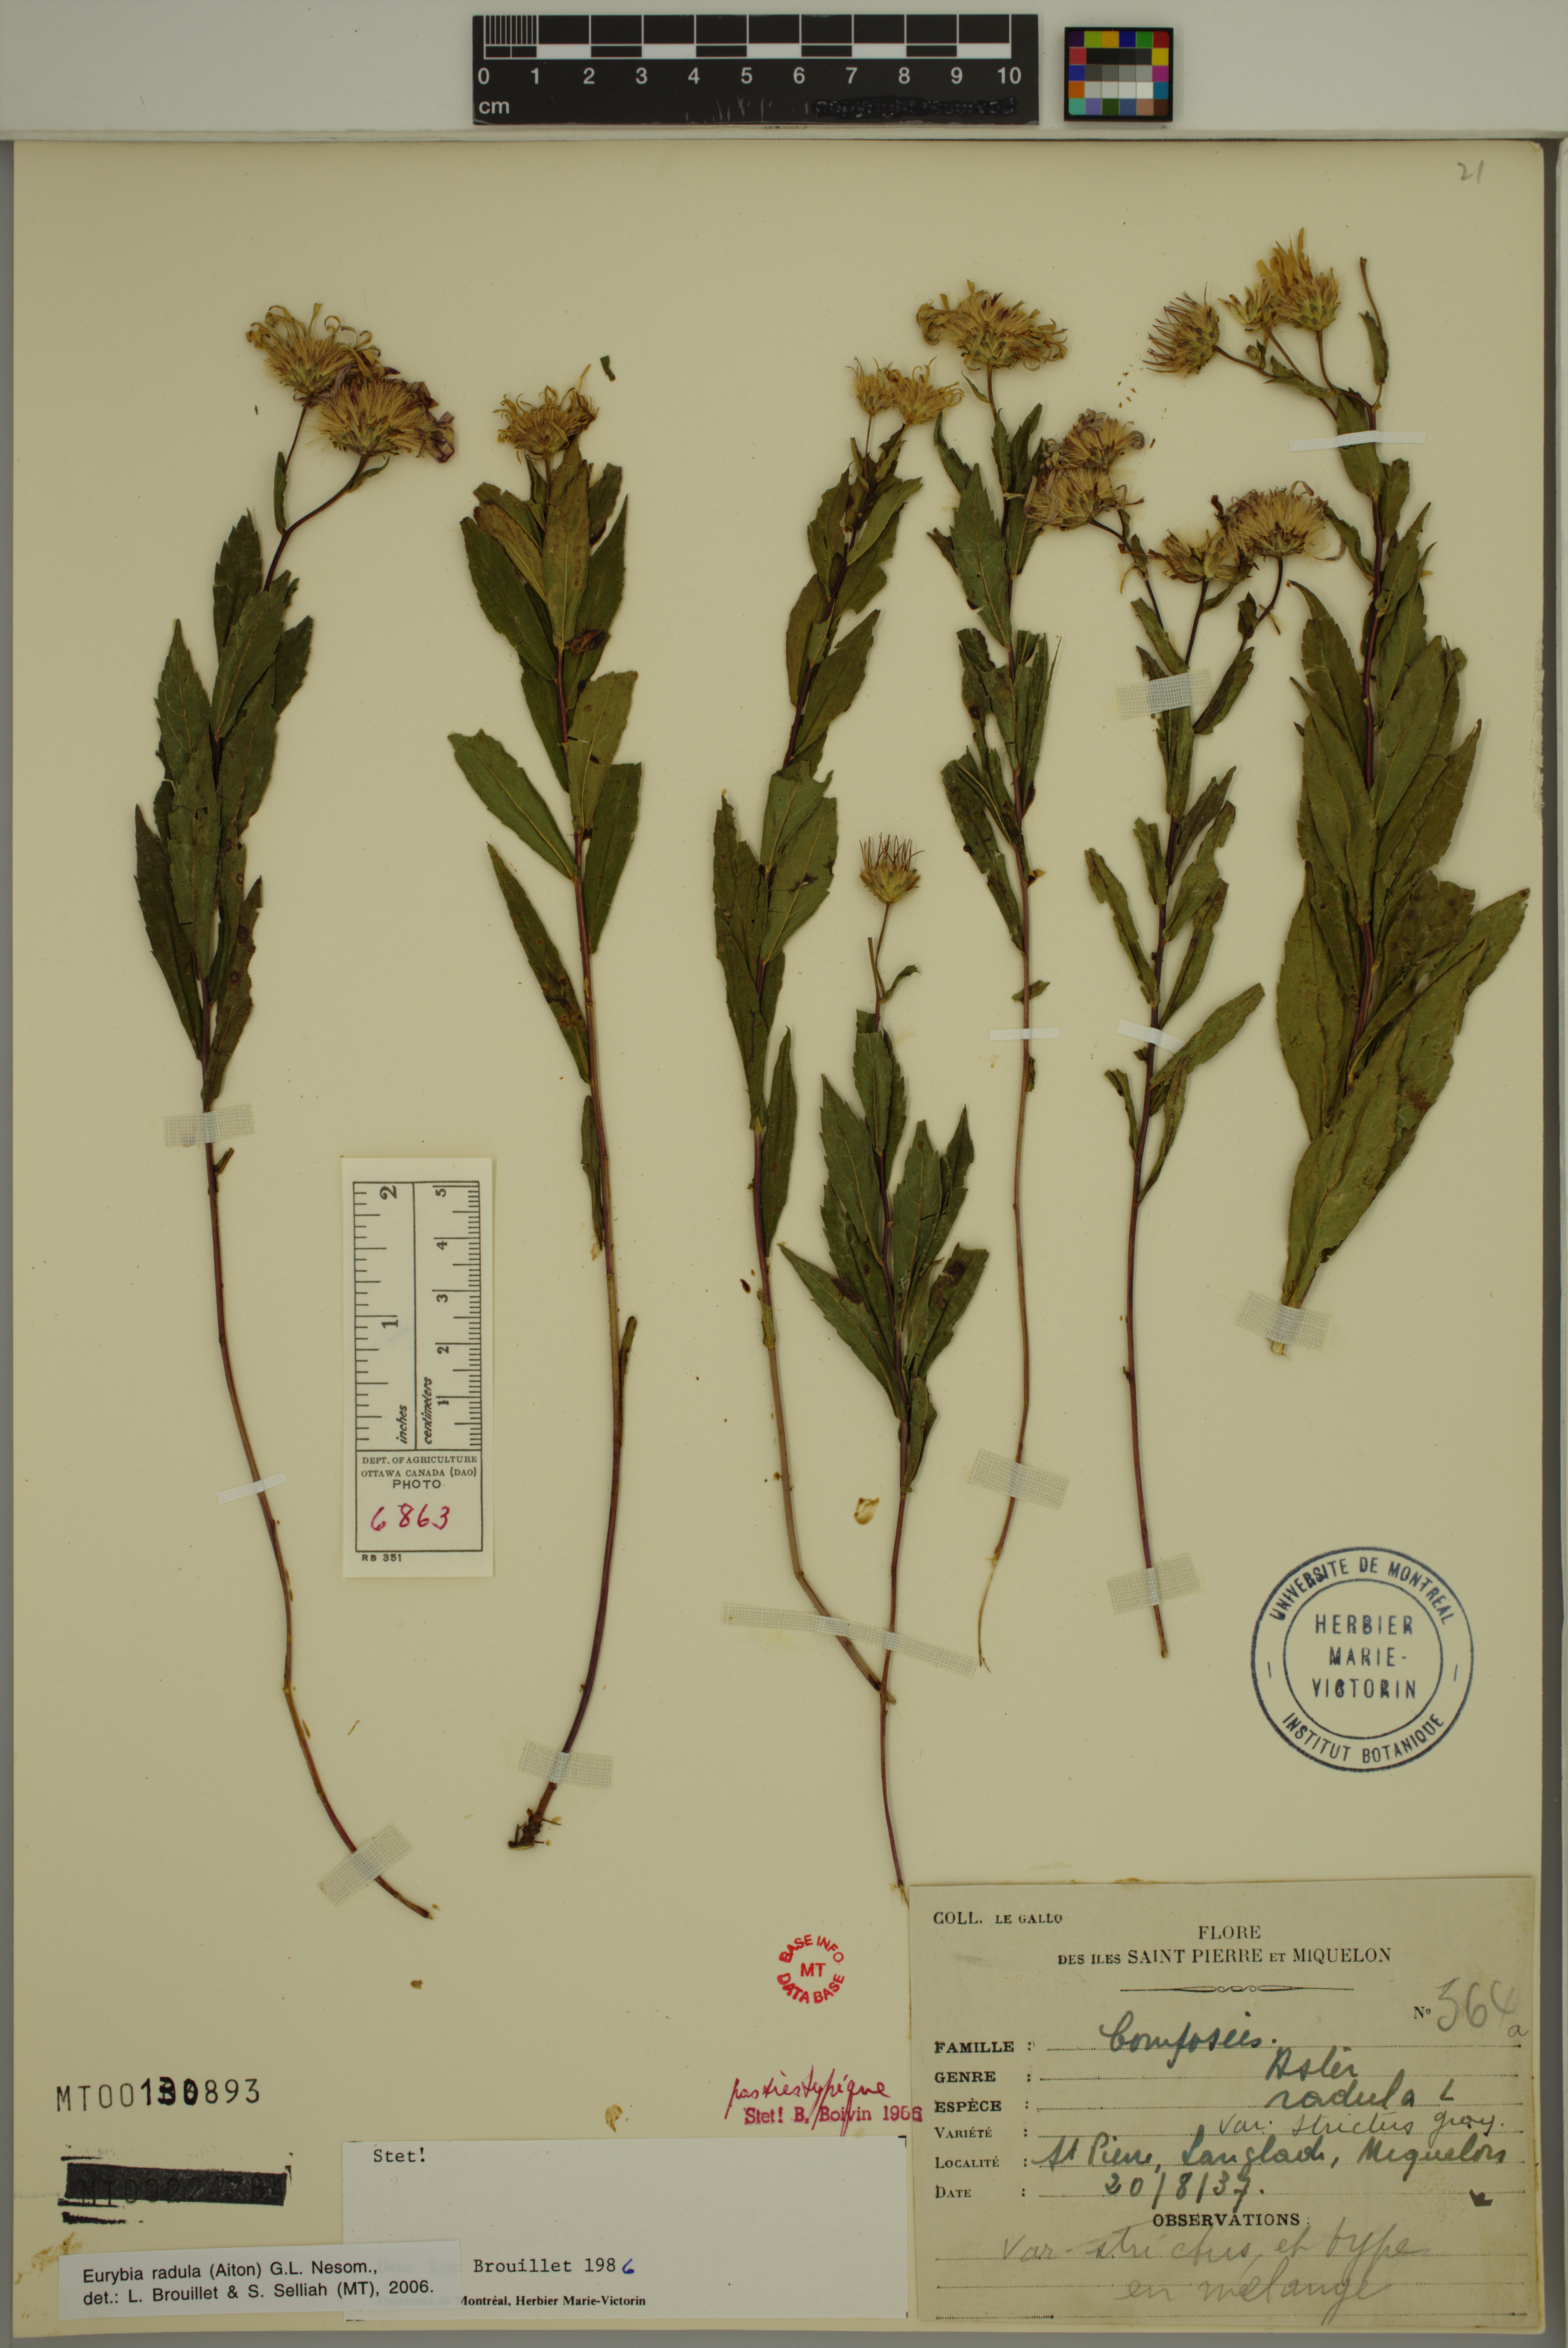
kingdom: Plantae
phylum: Tracheophyta
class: Magnoliopsida
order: Asterales
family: Asteraceae
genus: Eurybia
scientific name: Eurybia radula
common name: Low rough aster
